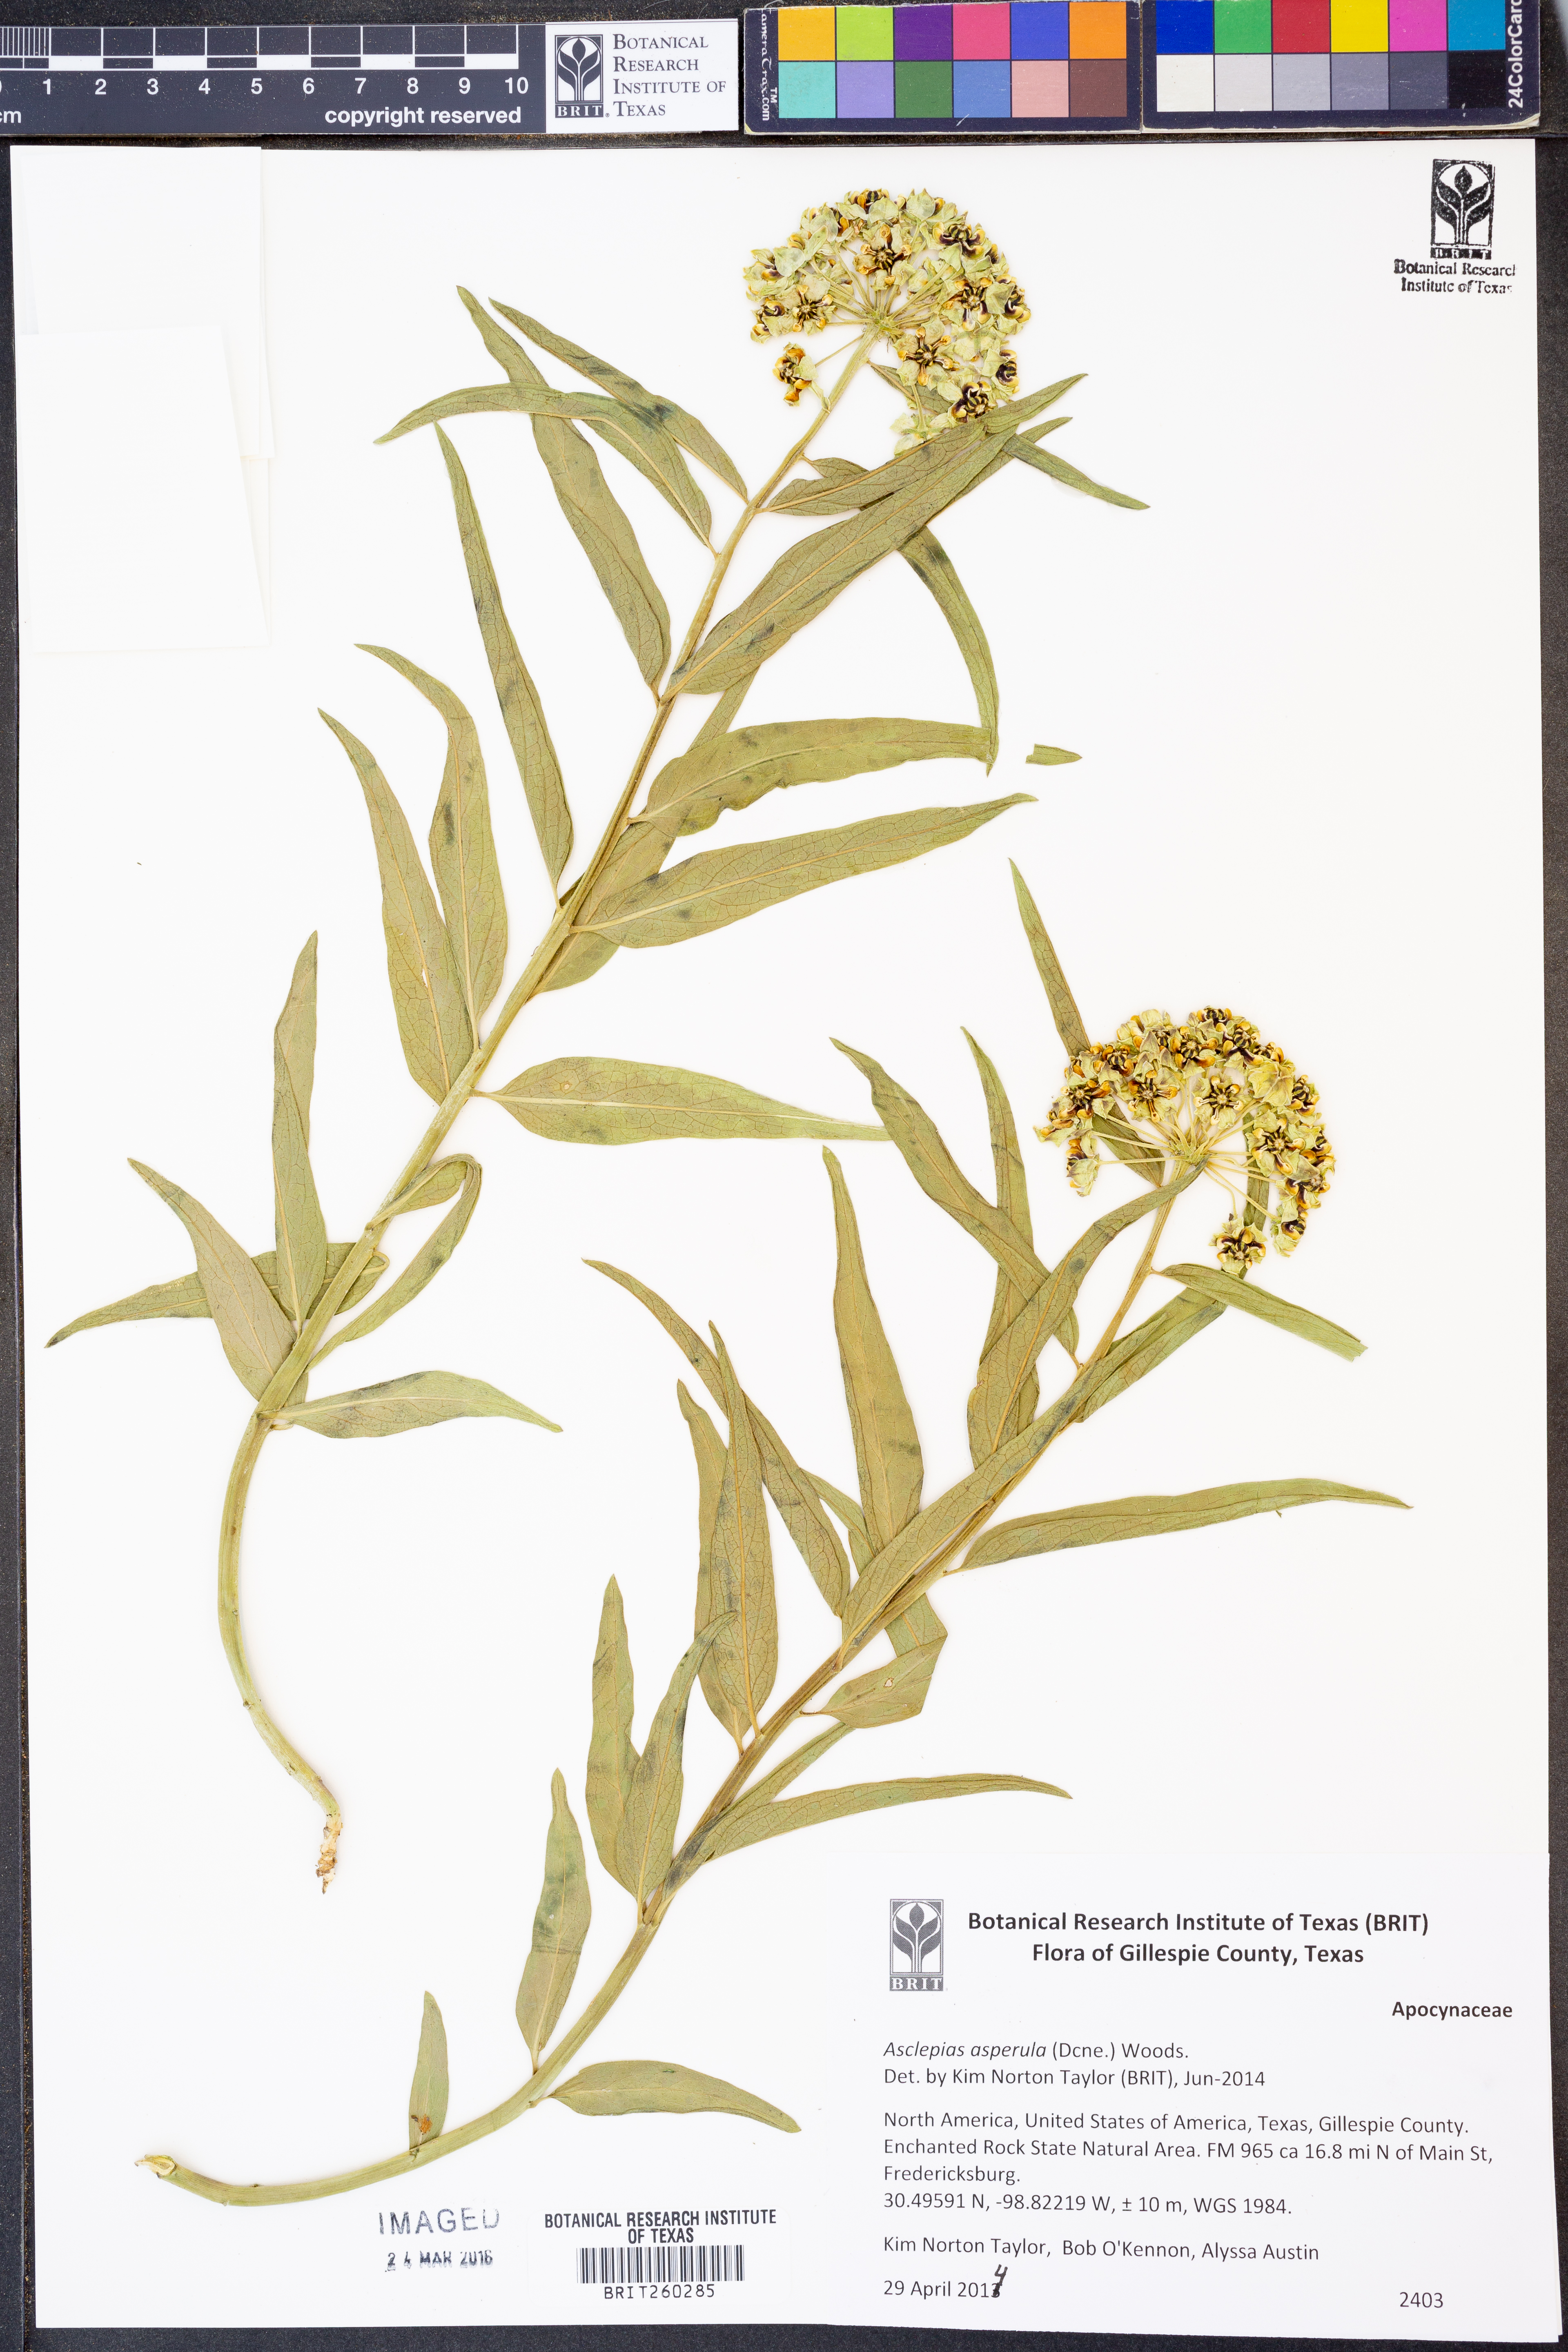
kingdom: Plantae
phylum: Tracheophyta
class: Magnoliopsida
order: Gentianales
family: Apocynaceae
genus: Asclepias
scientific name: Asclepias asperula
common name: Antelope horns
